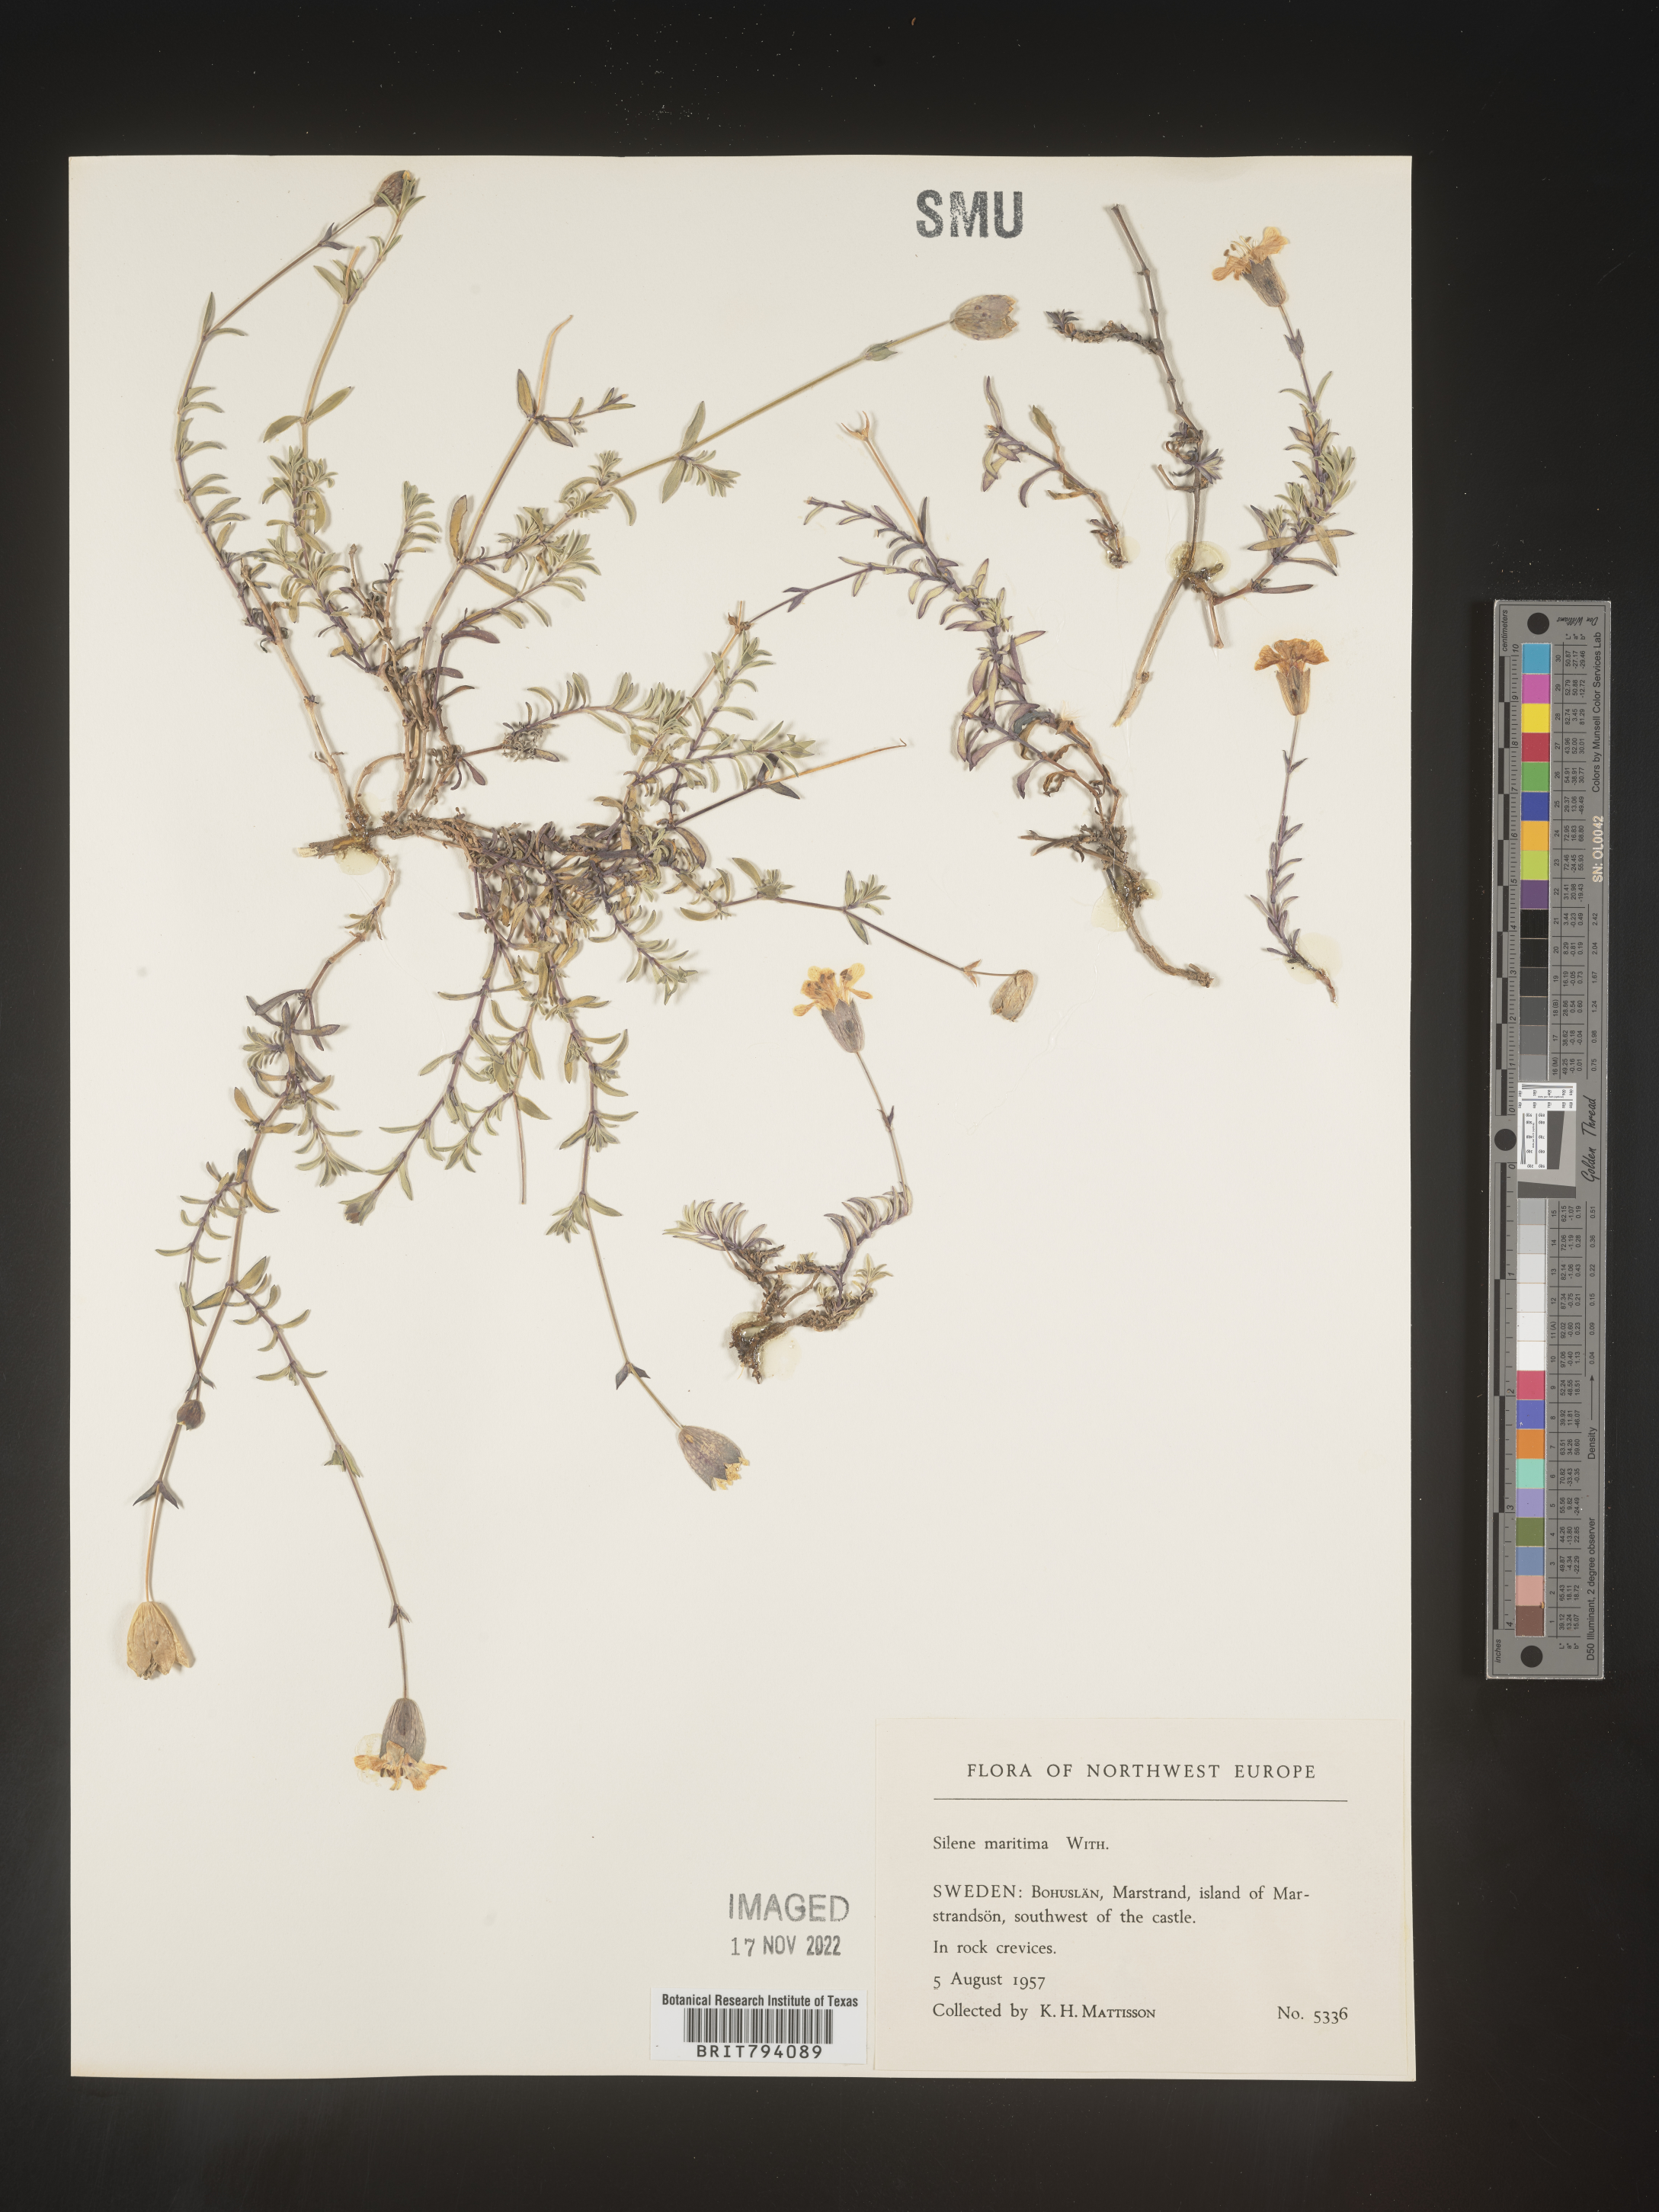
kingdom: Plantae
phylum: Tracheophyta
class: Magnoliopsida
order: Caryophyllales
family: Caryophyllaceae
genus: Silene
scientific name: Silene uniflora
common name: Sea campion
